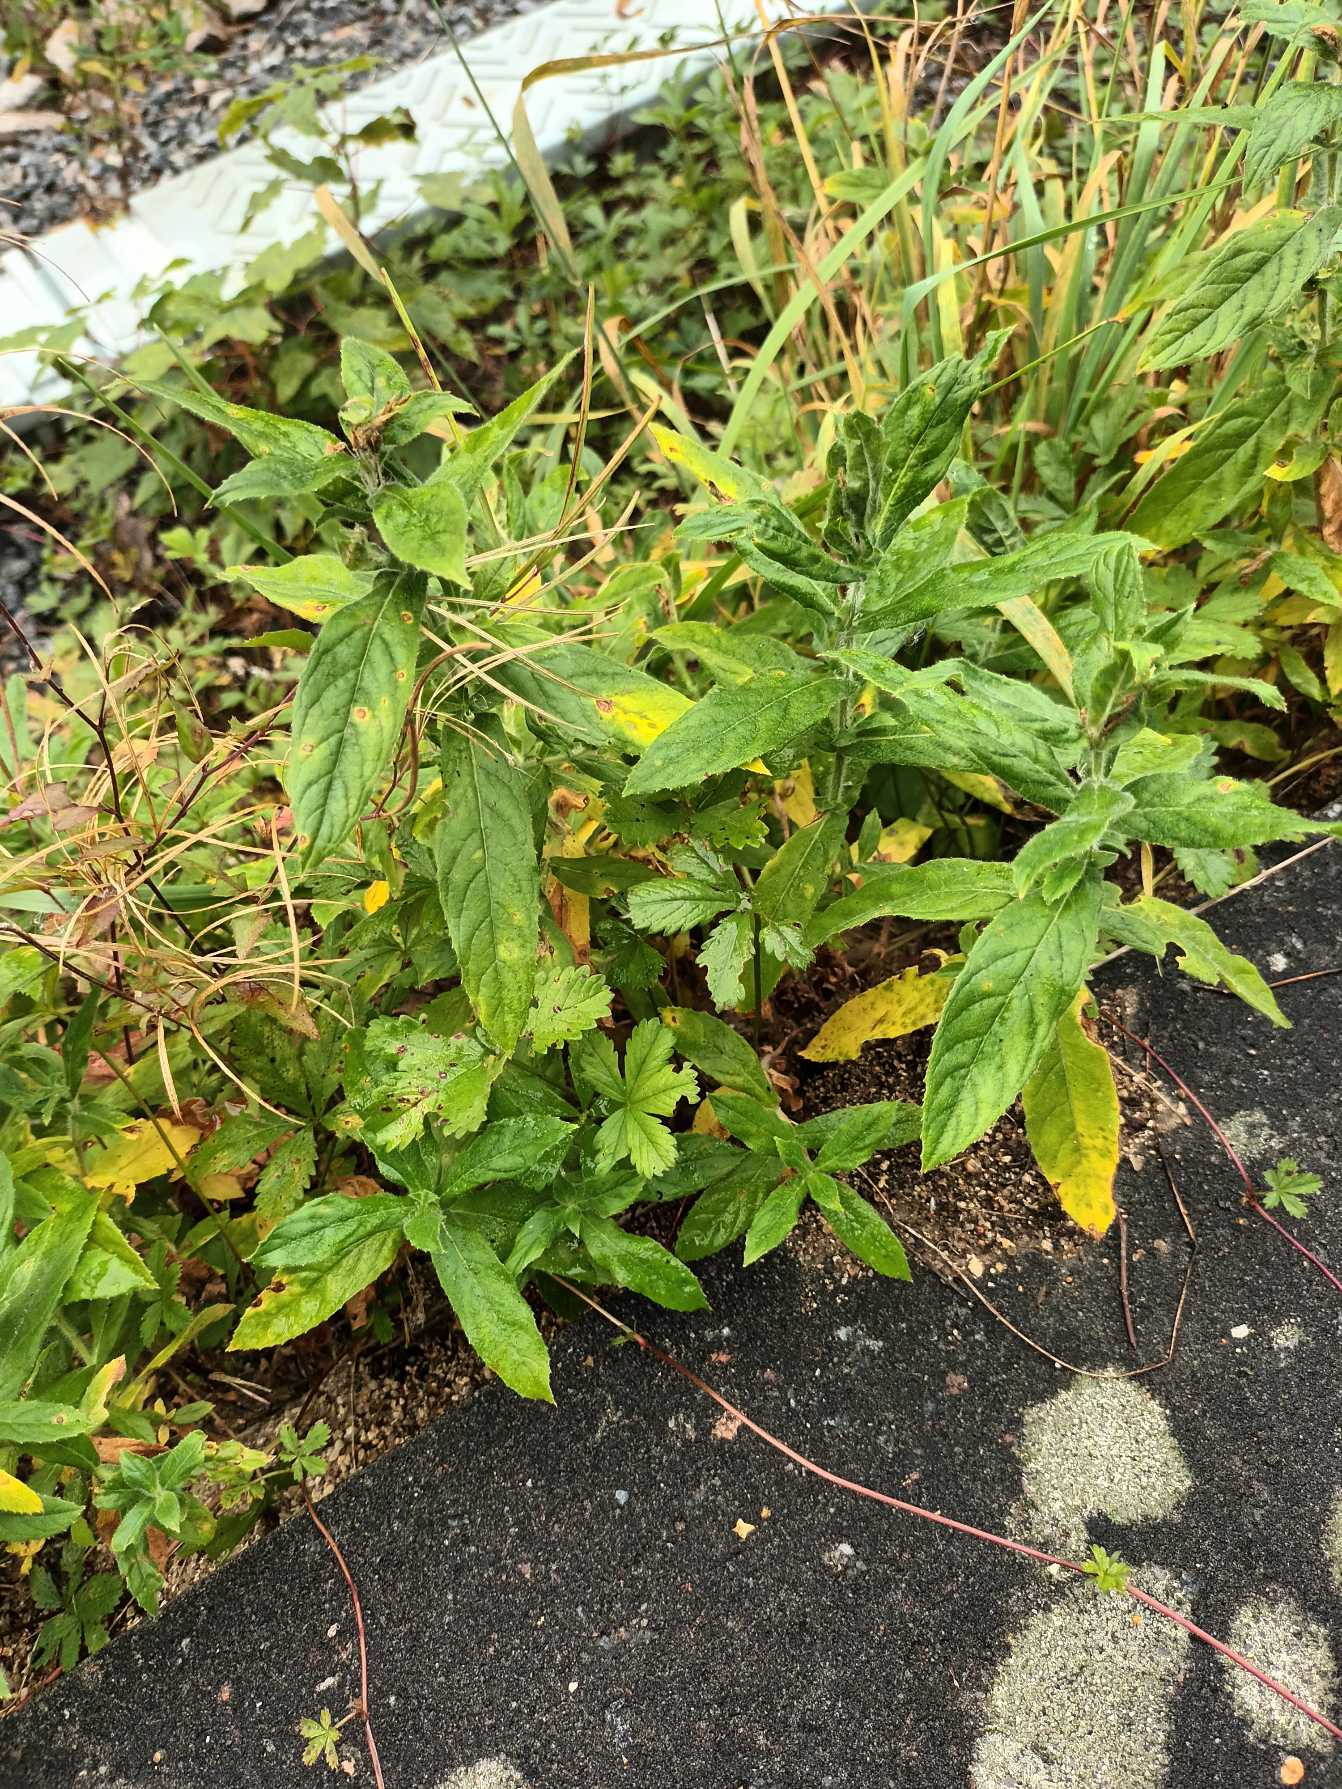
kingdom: Plantae
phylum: Tracheophyta
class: Magnoliopsida
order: Myrtales
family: Onagraceae
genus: Epilobium
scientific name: Epilobium hirsutum
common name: Lådden dueurt
